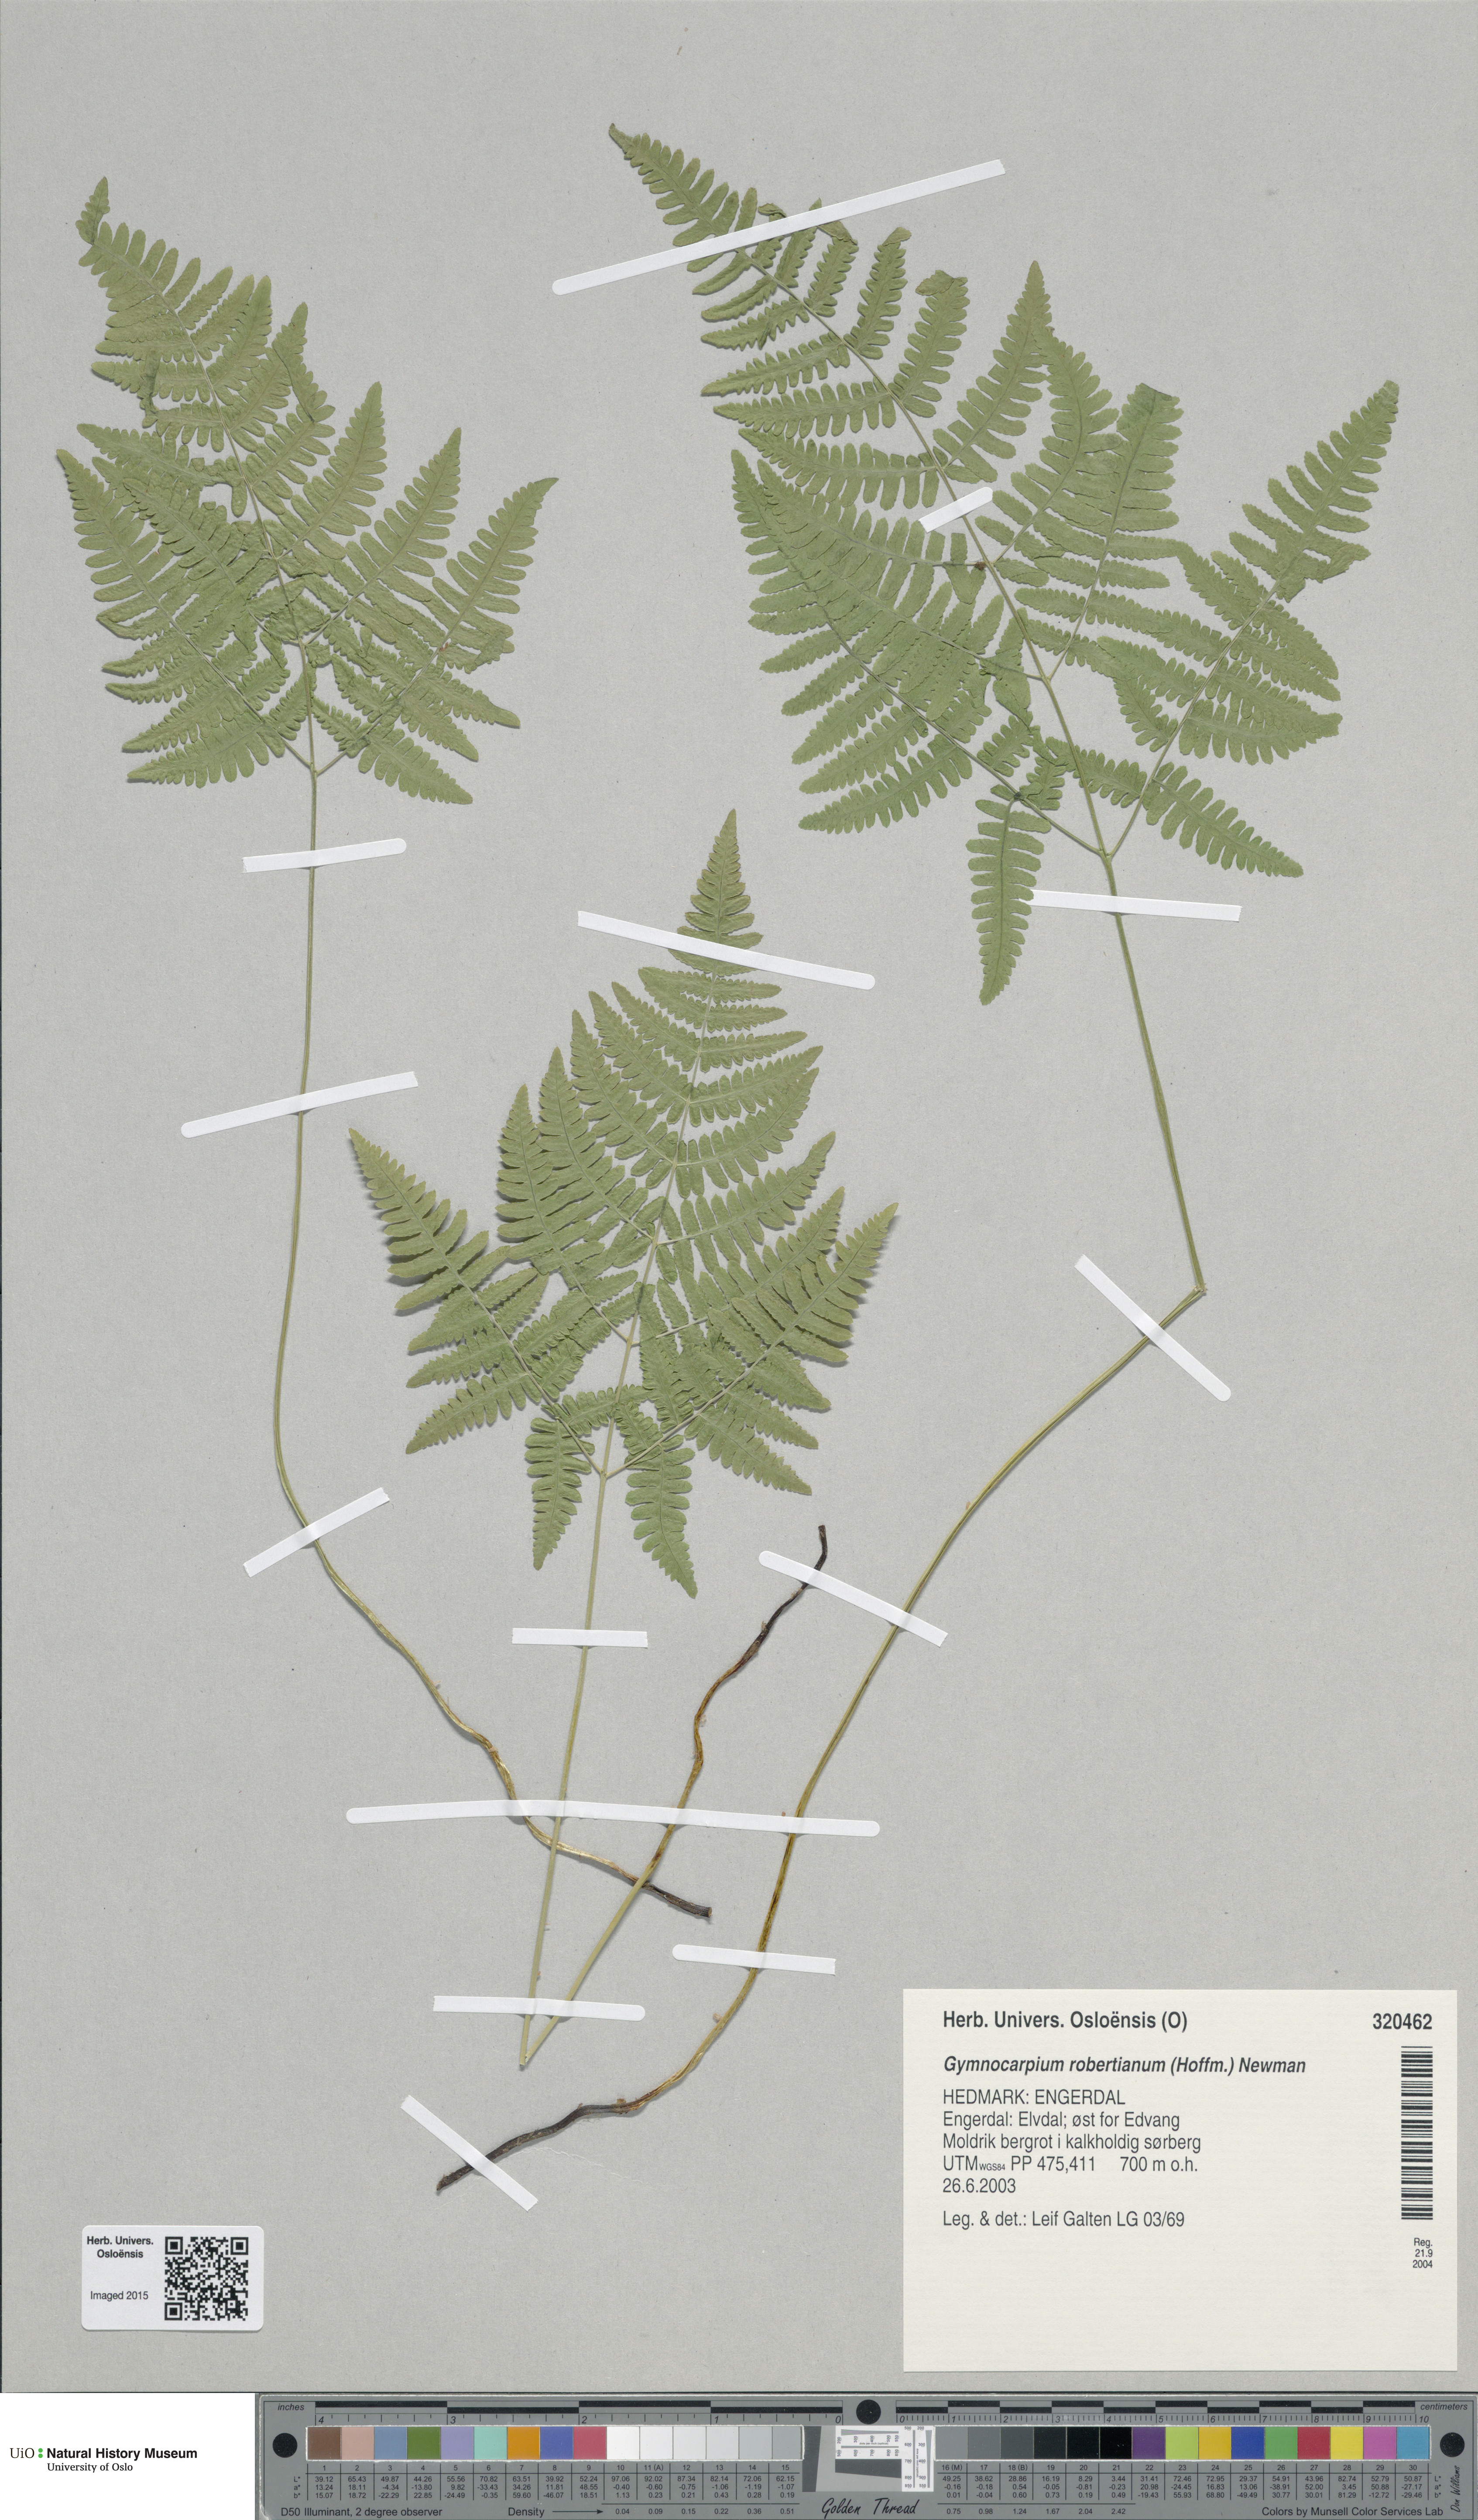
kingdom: Plantae
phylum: Tracheophyta
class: Polypodiopsida
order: Polypodiales
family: Cystopteridaceae
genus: Gymnocarpium
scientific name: Gymnocarpium robertianum
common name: Limestone fern
